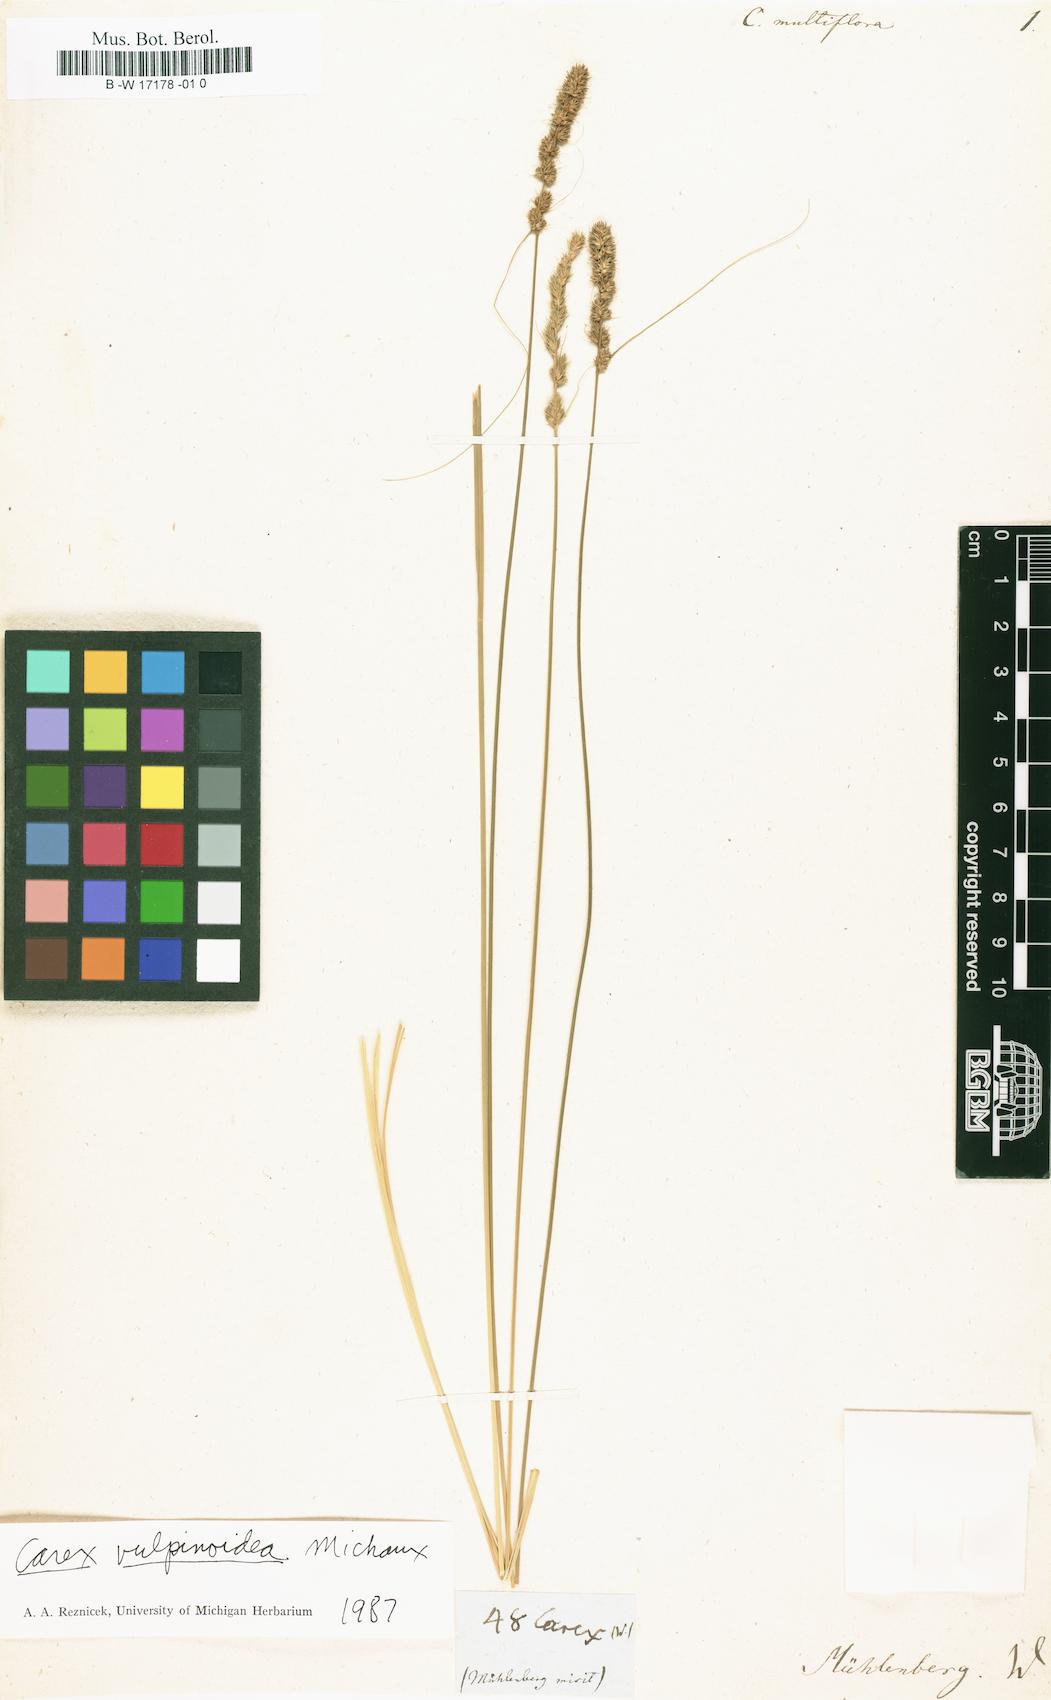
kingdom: Plantae
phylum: Tracheophyta
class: Liliopsida
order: Poales
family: Cyperaceae
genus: Carex
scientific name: Carex multiflora
